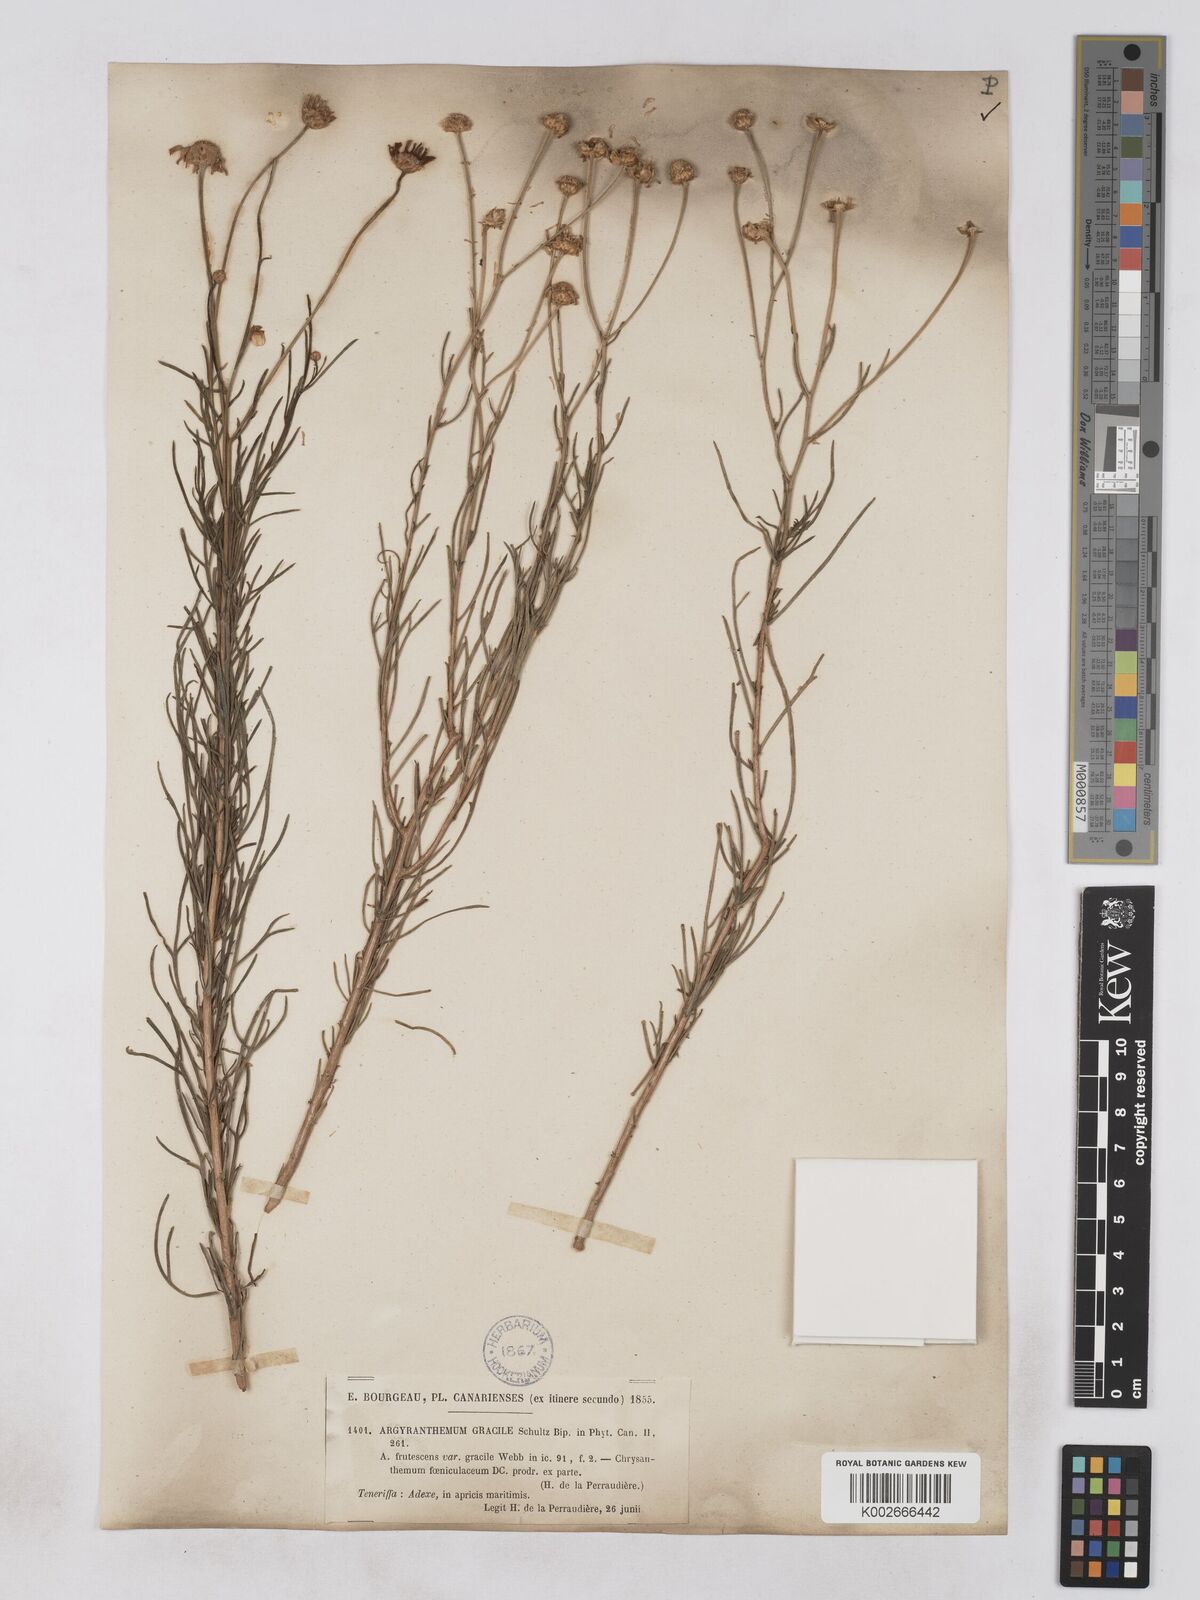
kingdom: Plantae
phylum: Tracheophyta
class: Magnoliopsida
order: Asterales
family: Asteraceae
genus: Argyranthemum
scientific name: Argyranthemum gracile
